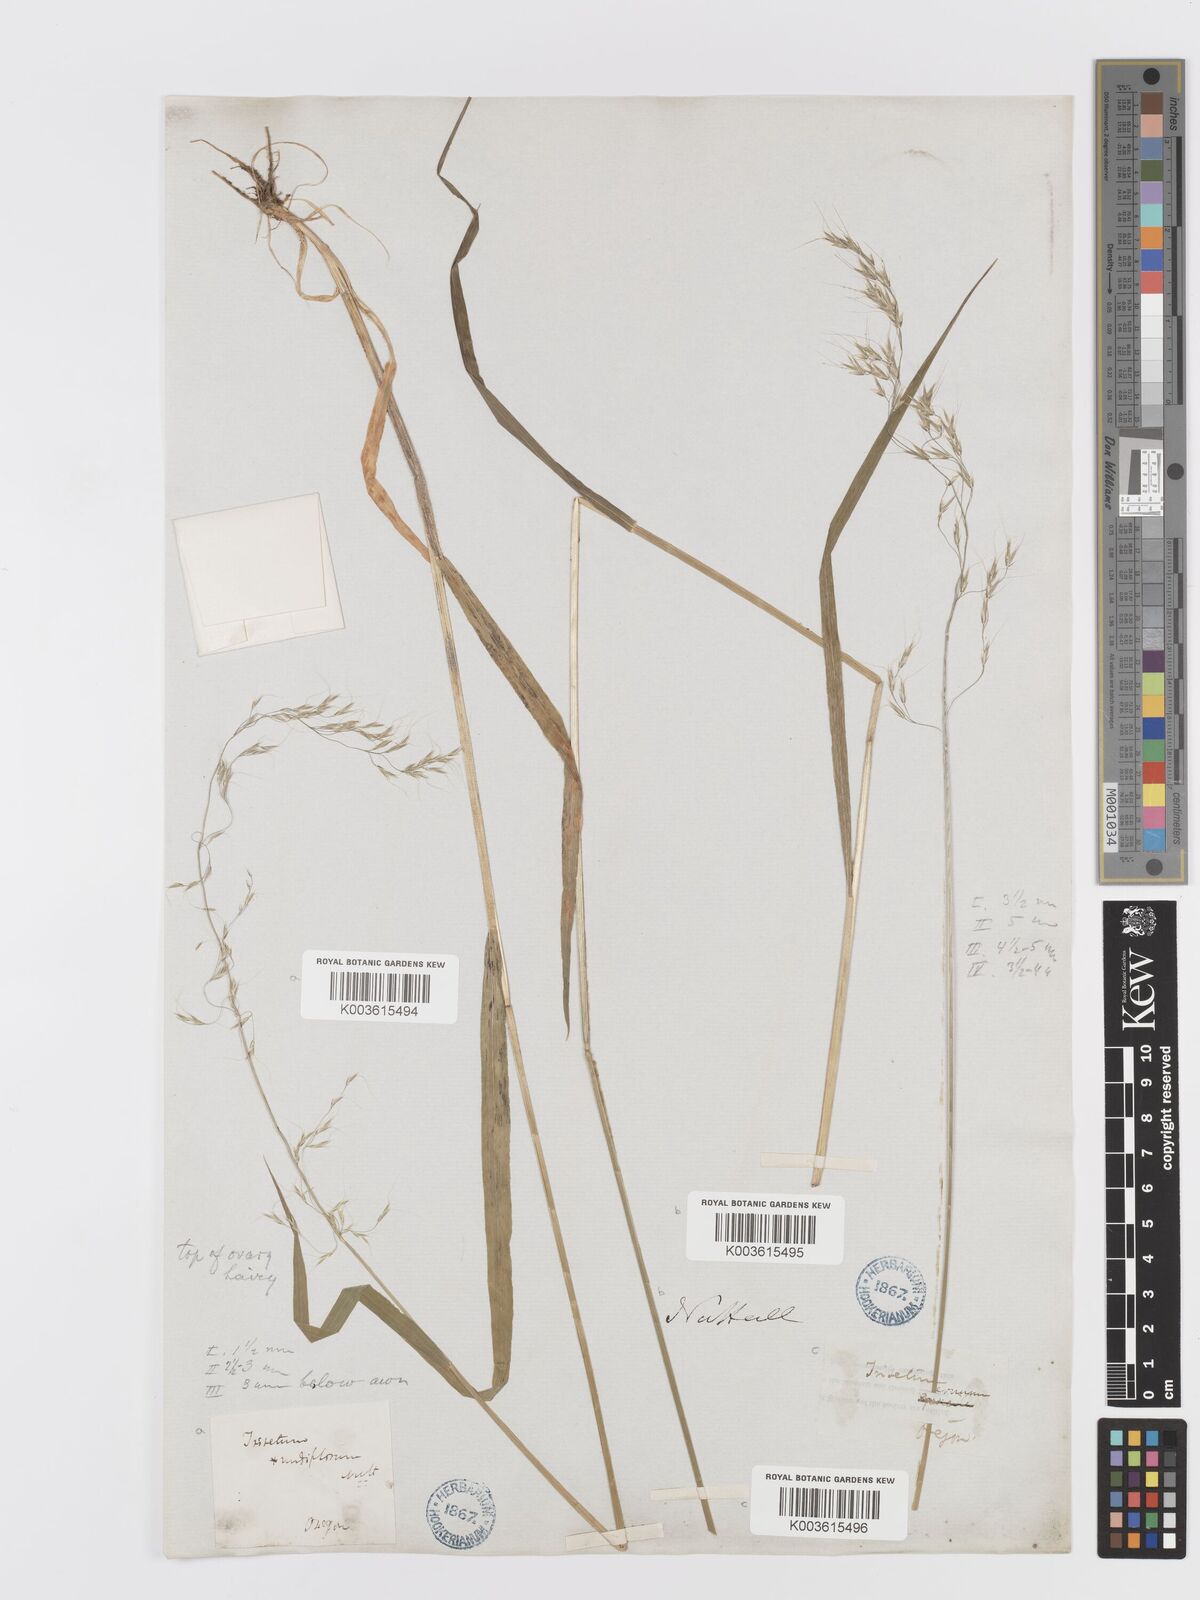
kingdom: Plantae
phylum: Tracheophyta
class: Liliopsida
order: Poales
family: Poaceae
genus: Graphephorum
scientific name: Graphephorum cernuum
